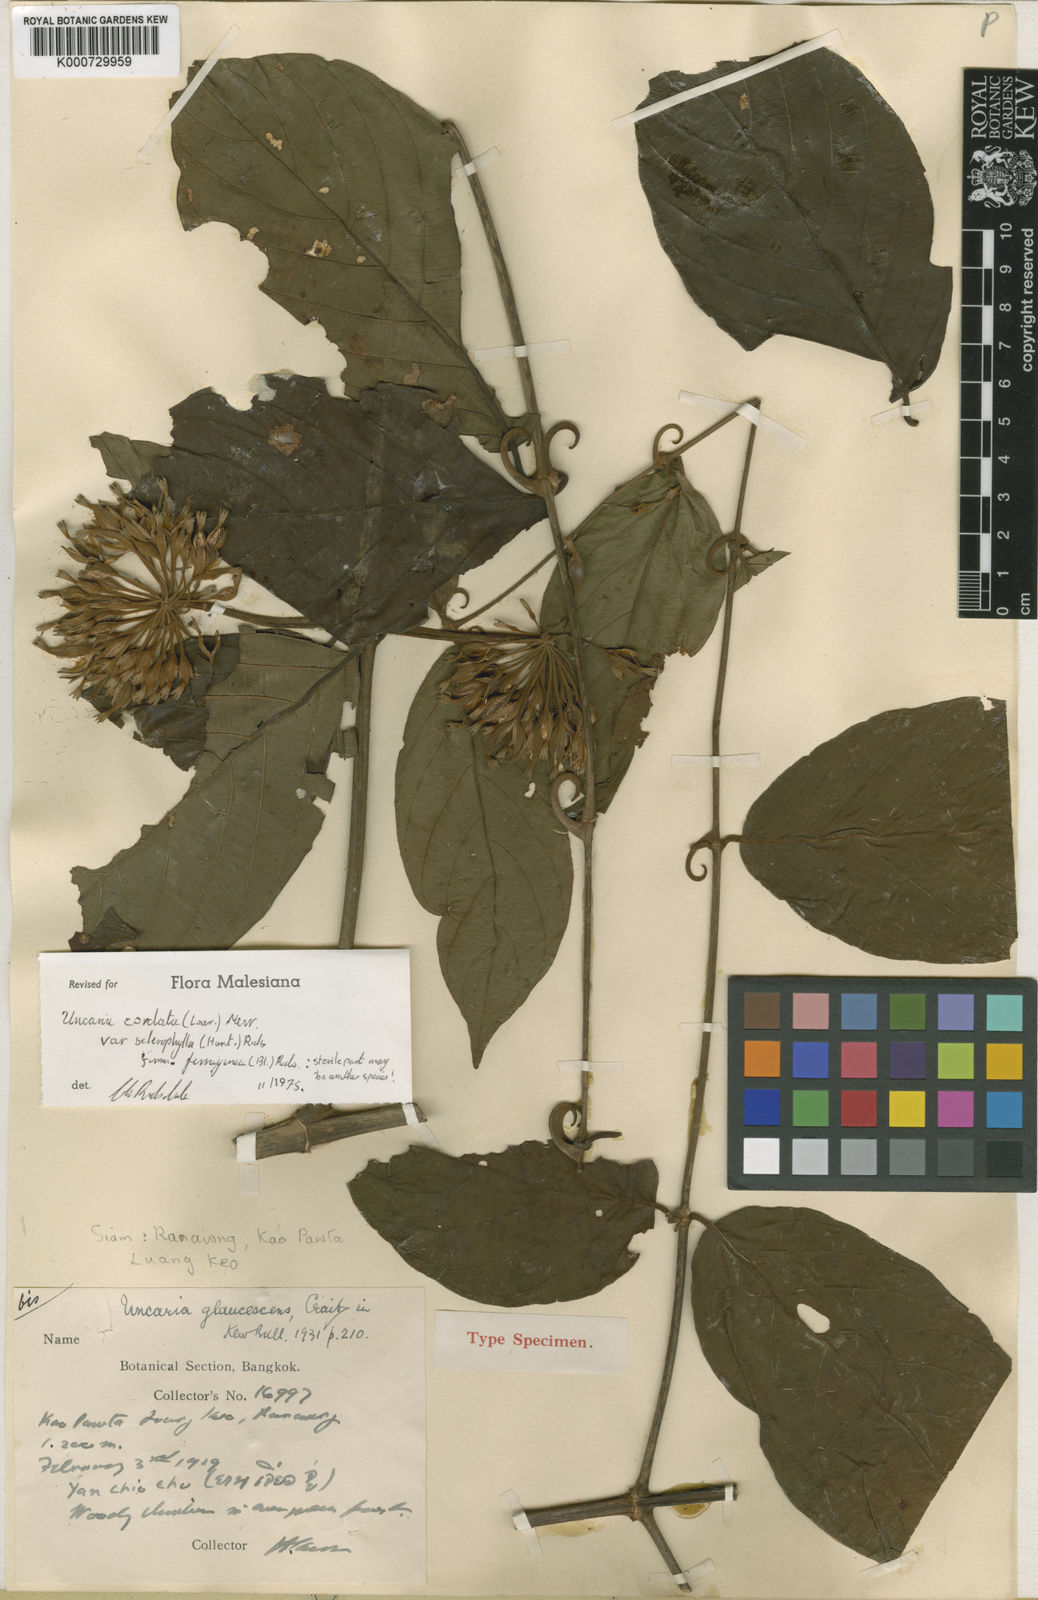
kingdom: Plantae
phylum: Tracheophyta
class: Magnoliopsida
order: Gentianales
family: Rubiaceae
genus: Uncaria
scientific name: Uncaria cordata
